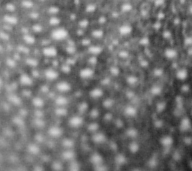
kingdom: Animalia
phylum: Chordata
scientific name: Chordata
